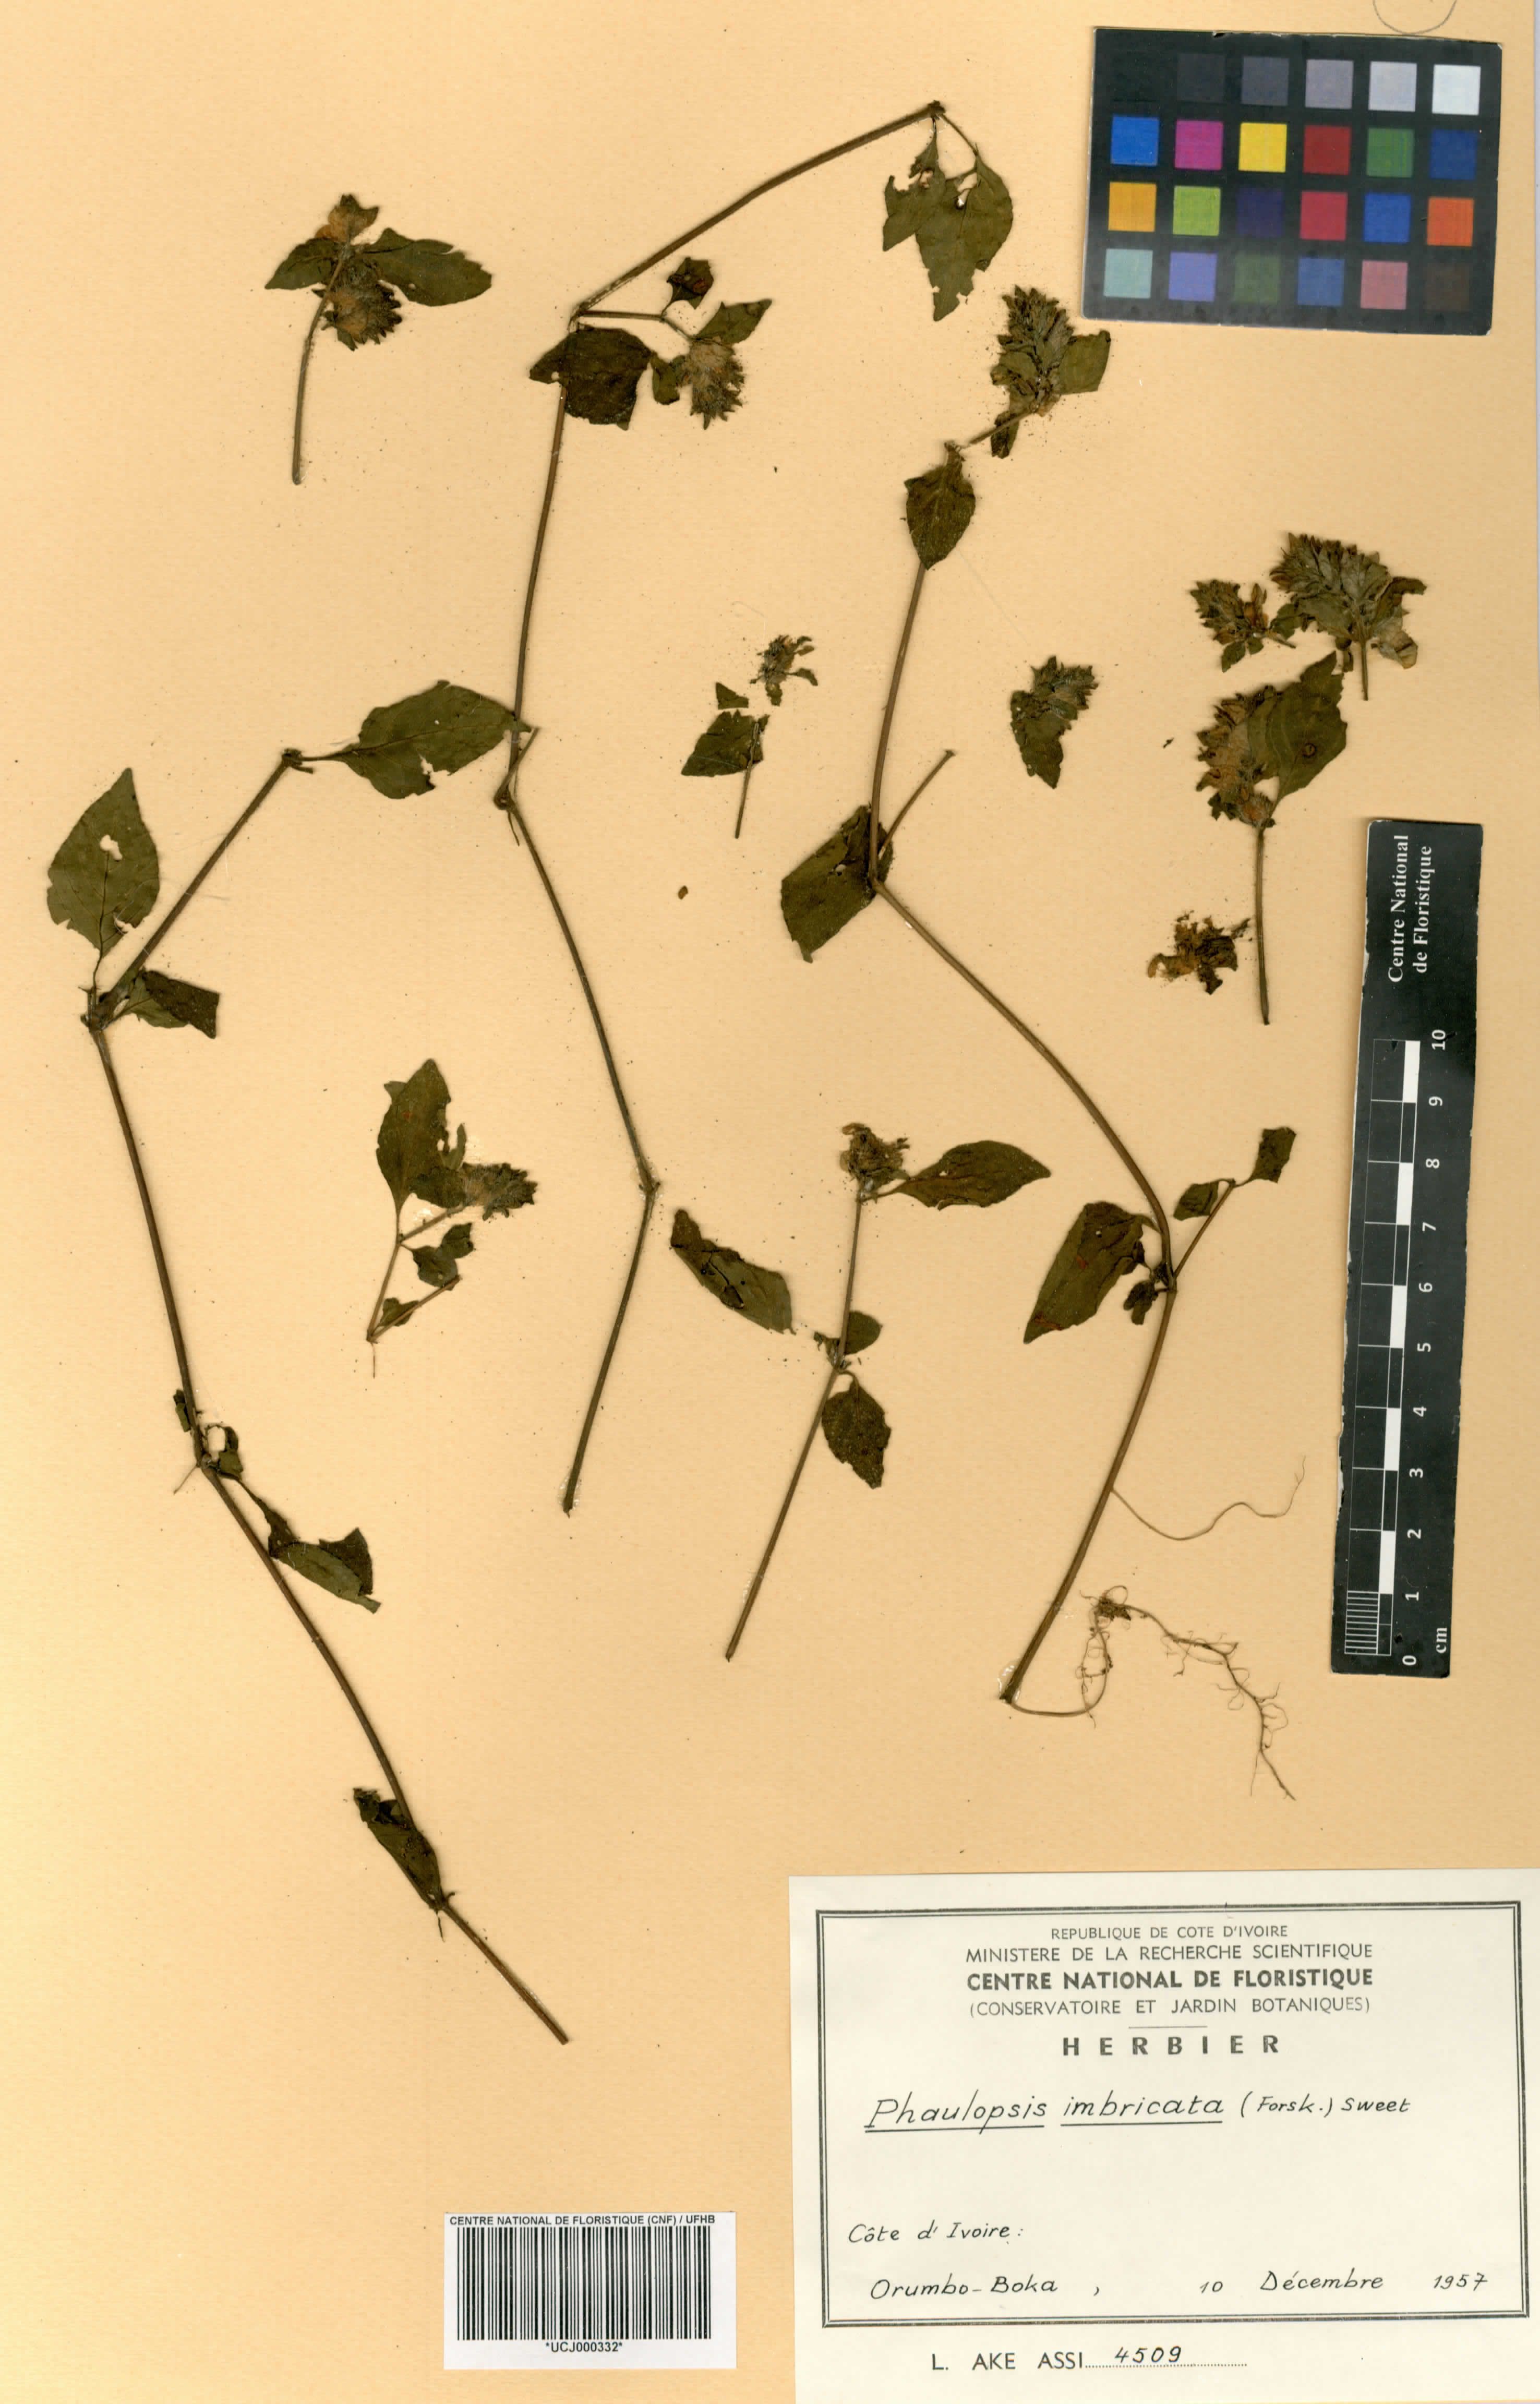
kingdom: Plantae
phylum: Tracheophyta
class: Magnoliopsida
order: Lamiales
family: Acanthaceae
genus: Phaulopsis
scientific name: Phaulopsis imbricata
